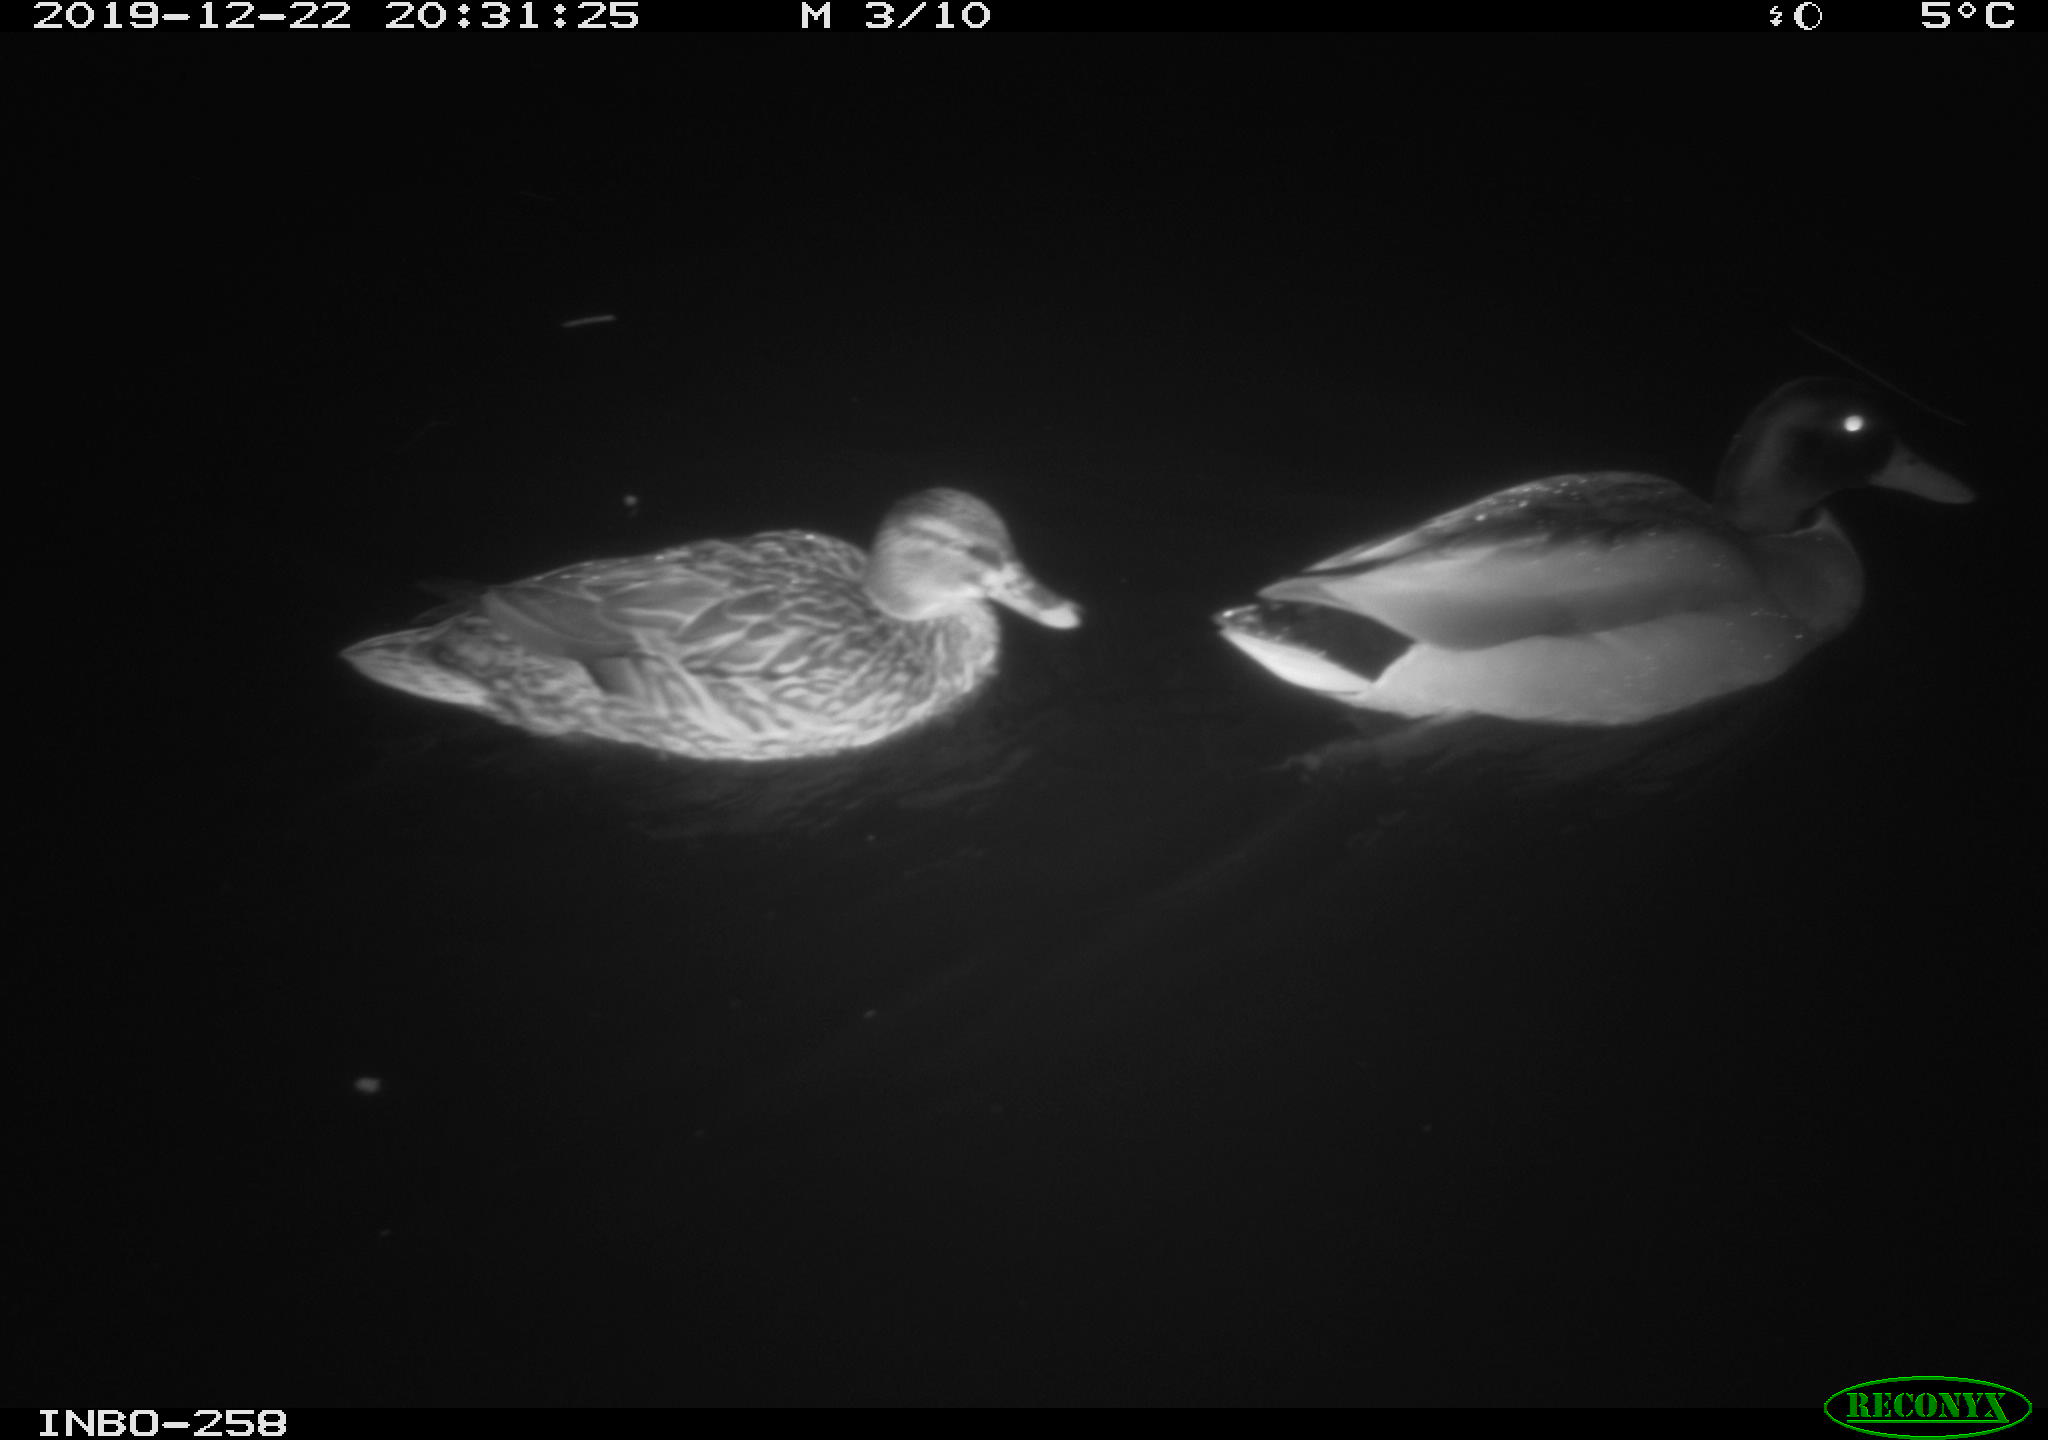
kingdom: Animalia
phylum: Chordata
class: Aves
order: Anseriformes
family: Anatidae
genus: Anas
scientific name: Anas platyrhynchos
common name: Mallard
